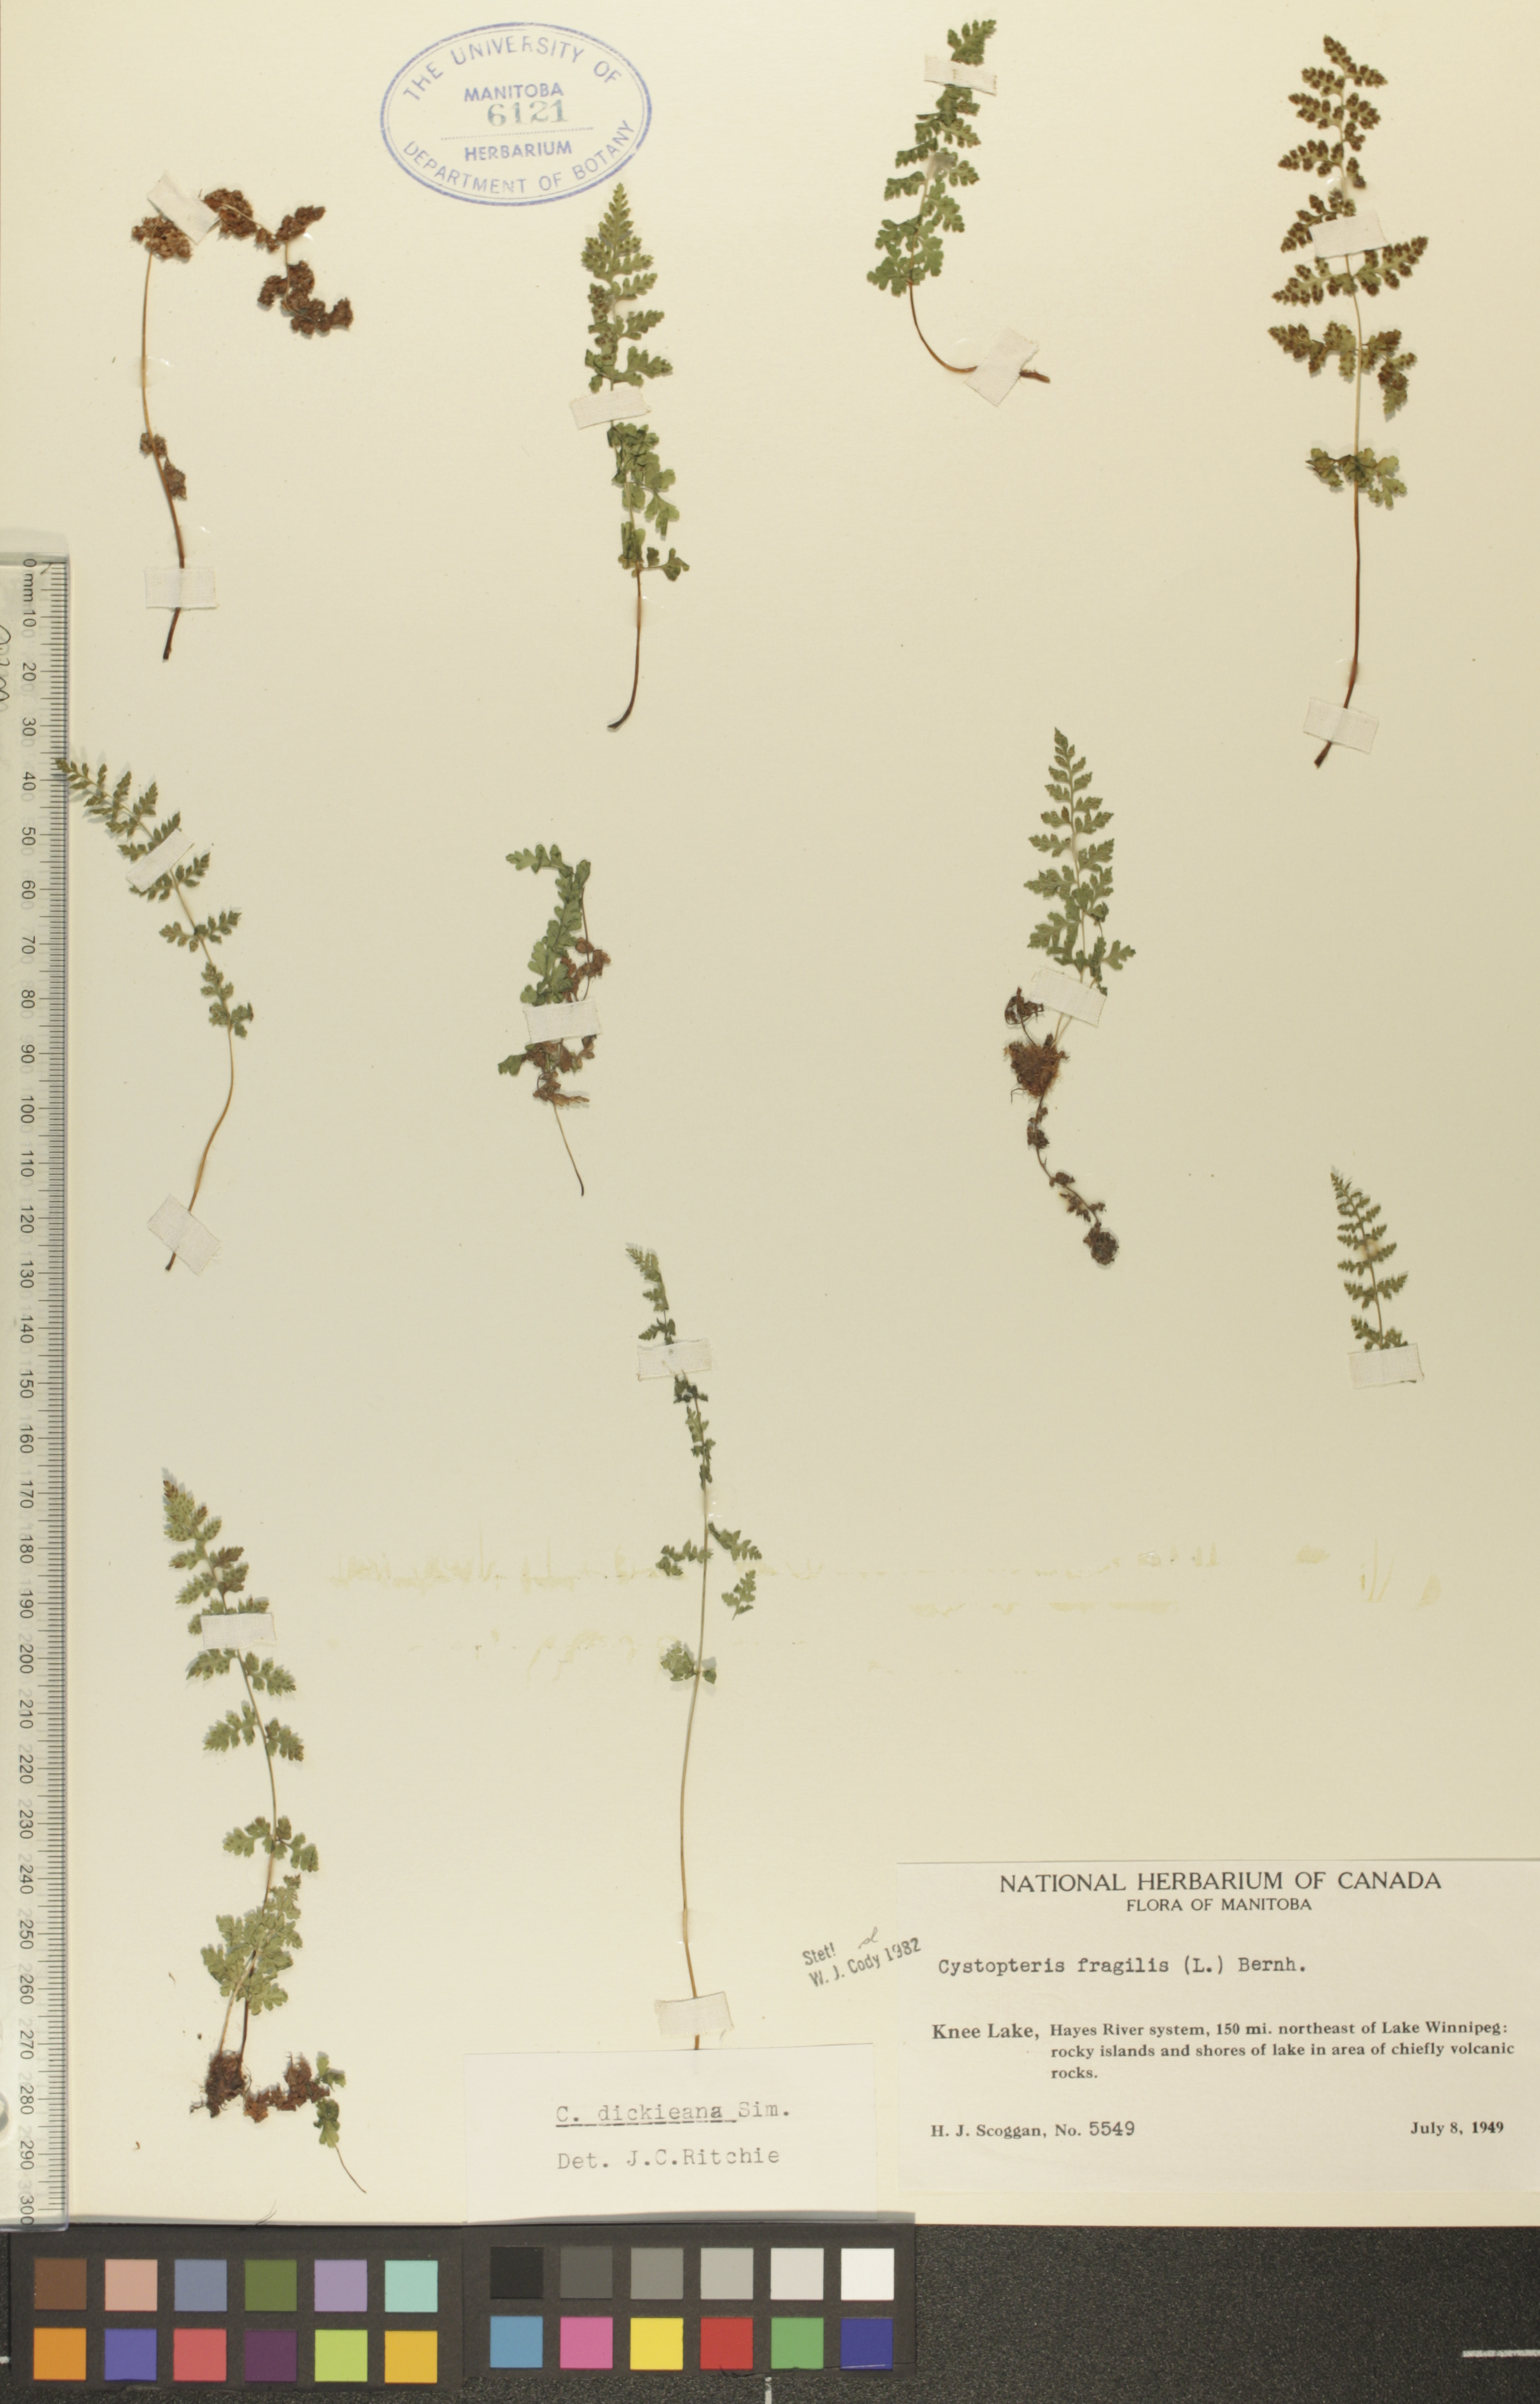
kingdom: Plantae
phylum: Tracheophyta
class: Polypodiopsida
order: Polypodiales
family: Cystopteridaceae
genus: Cystopteris
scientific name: Cystopteris fragilis
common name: Brittle bladder fern
